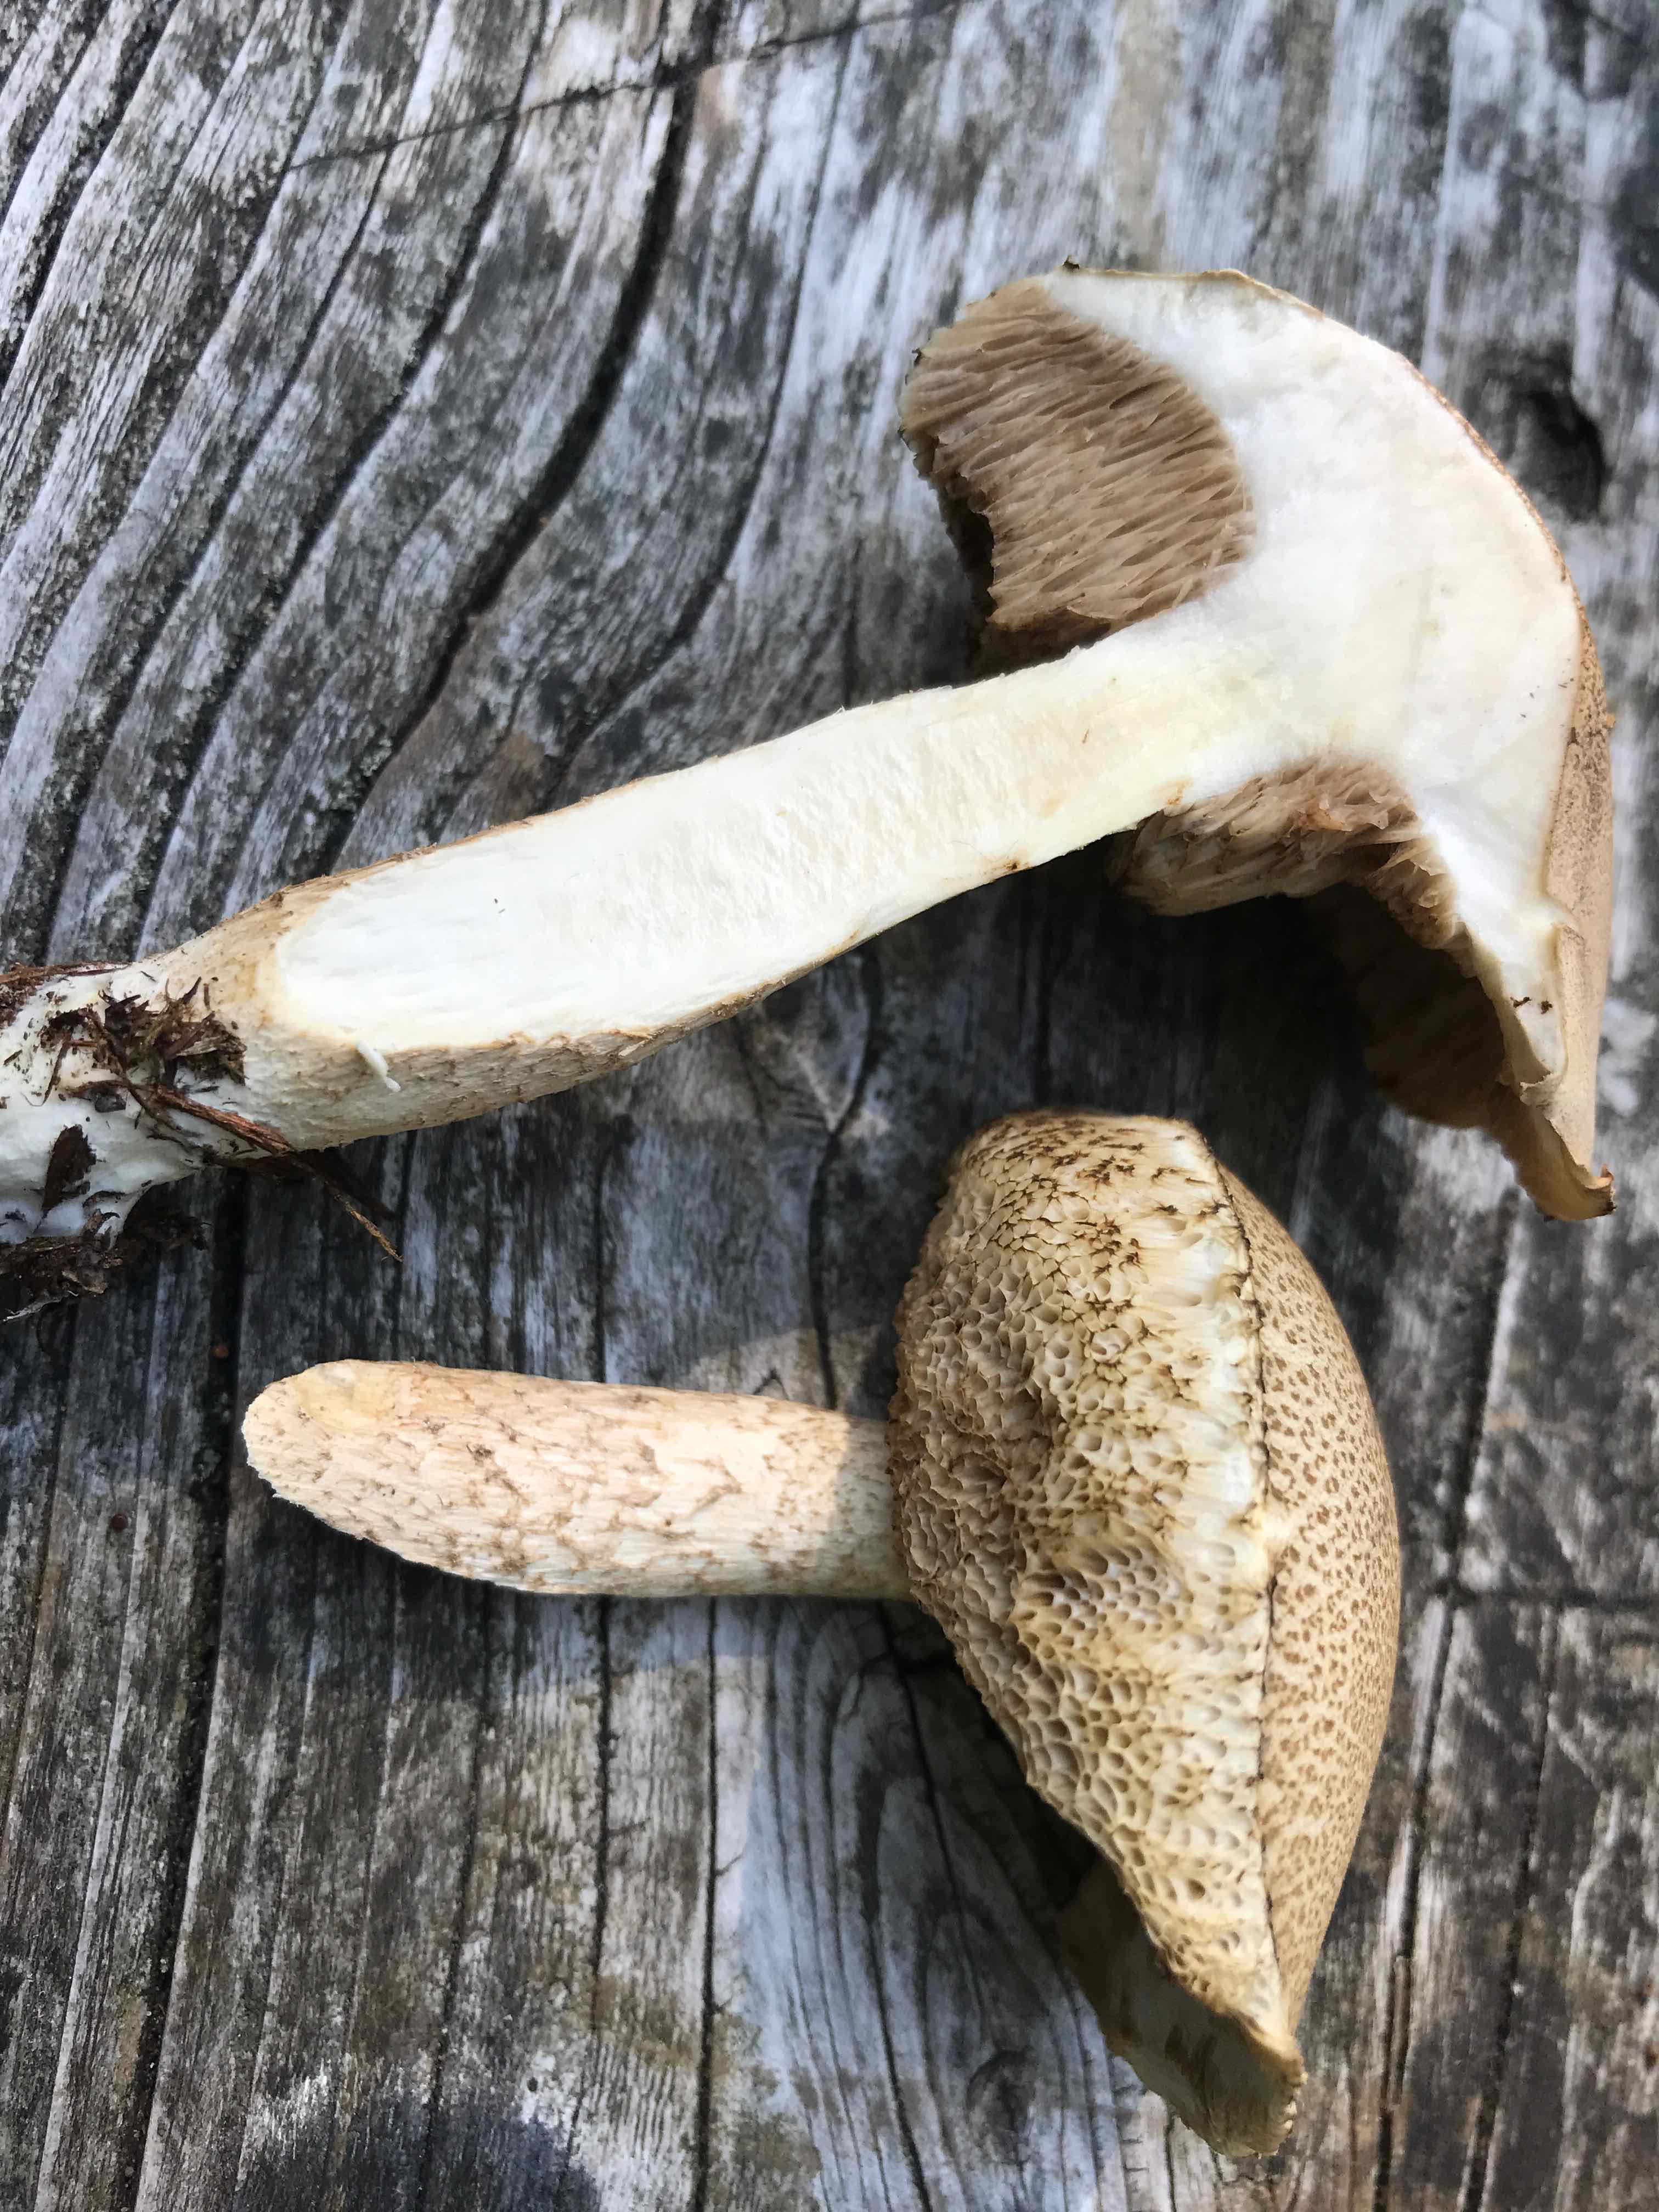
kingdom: Fungi
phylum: Basidiomycota
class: Agaricomycetes
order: Boletales
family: Boletaceae
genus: Leccinum
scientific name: Leccinum
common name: skælrørhat
